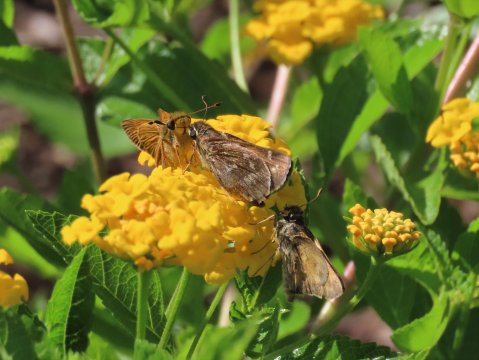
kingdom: Animalia
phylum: Arthropoda
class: Insecta
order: Lepidoptera
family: Hesperiidae
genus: Atalopedes
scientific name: Atalopedes campestris
